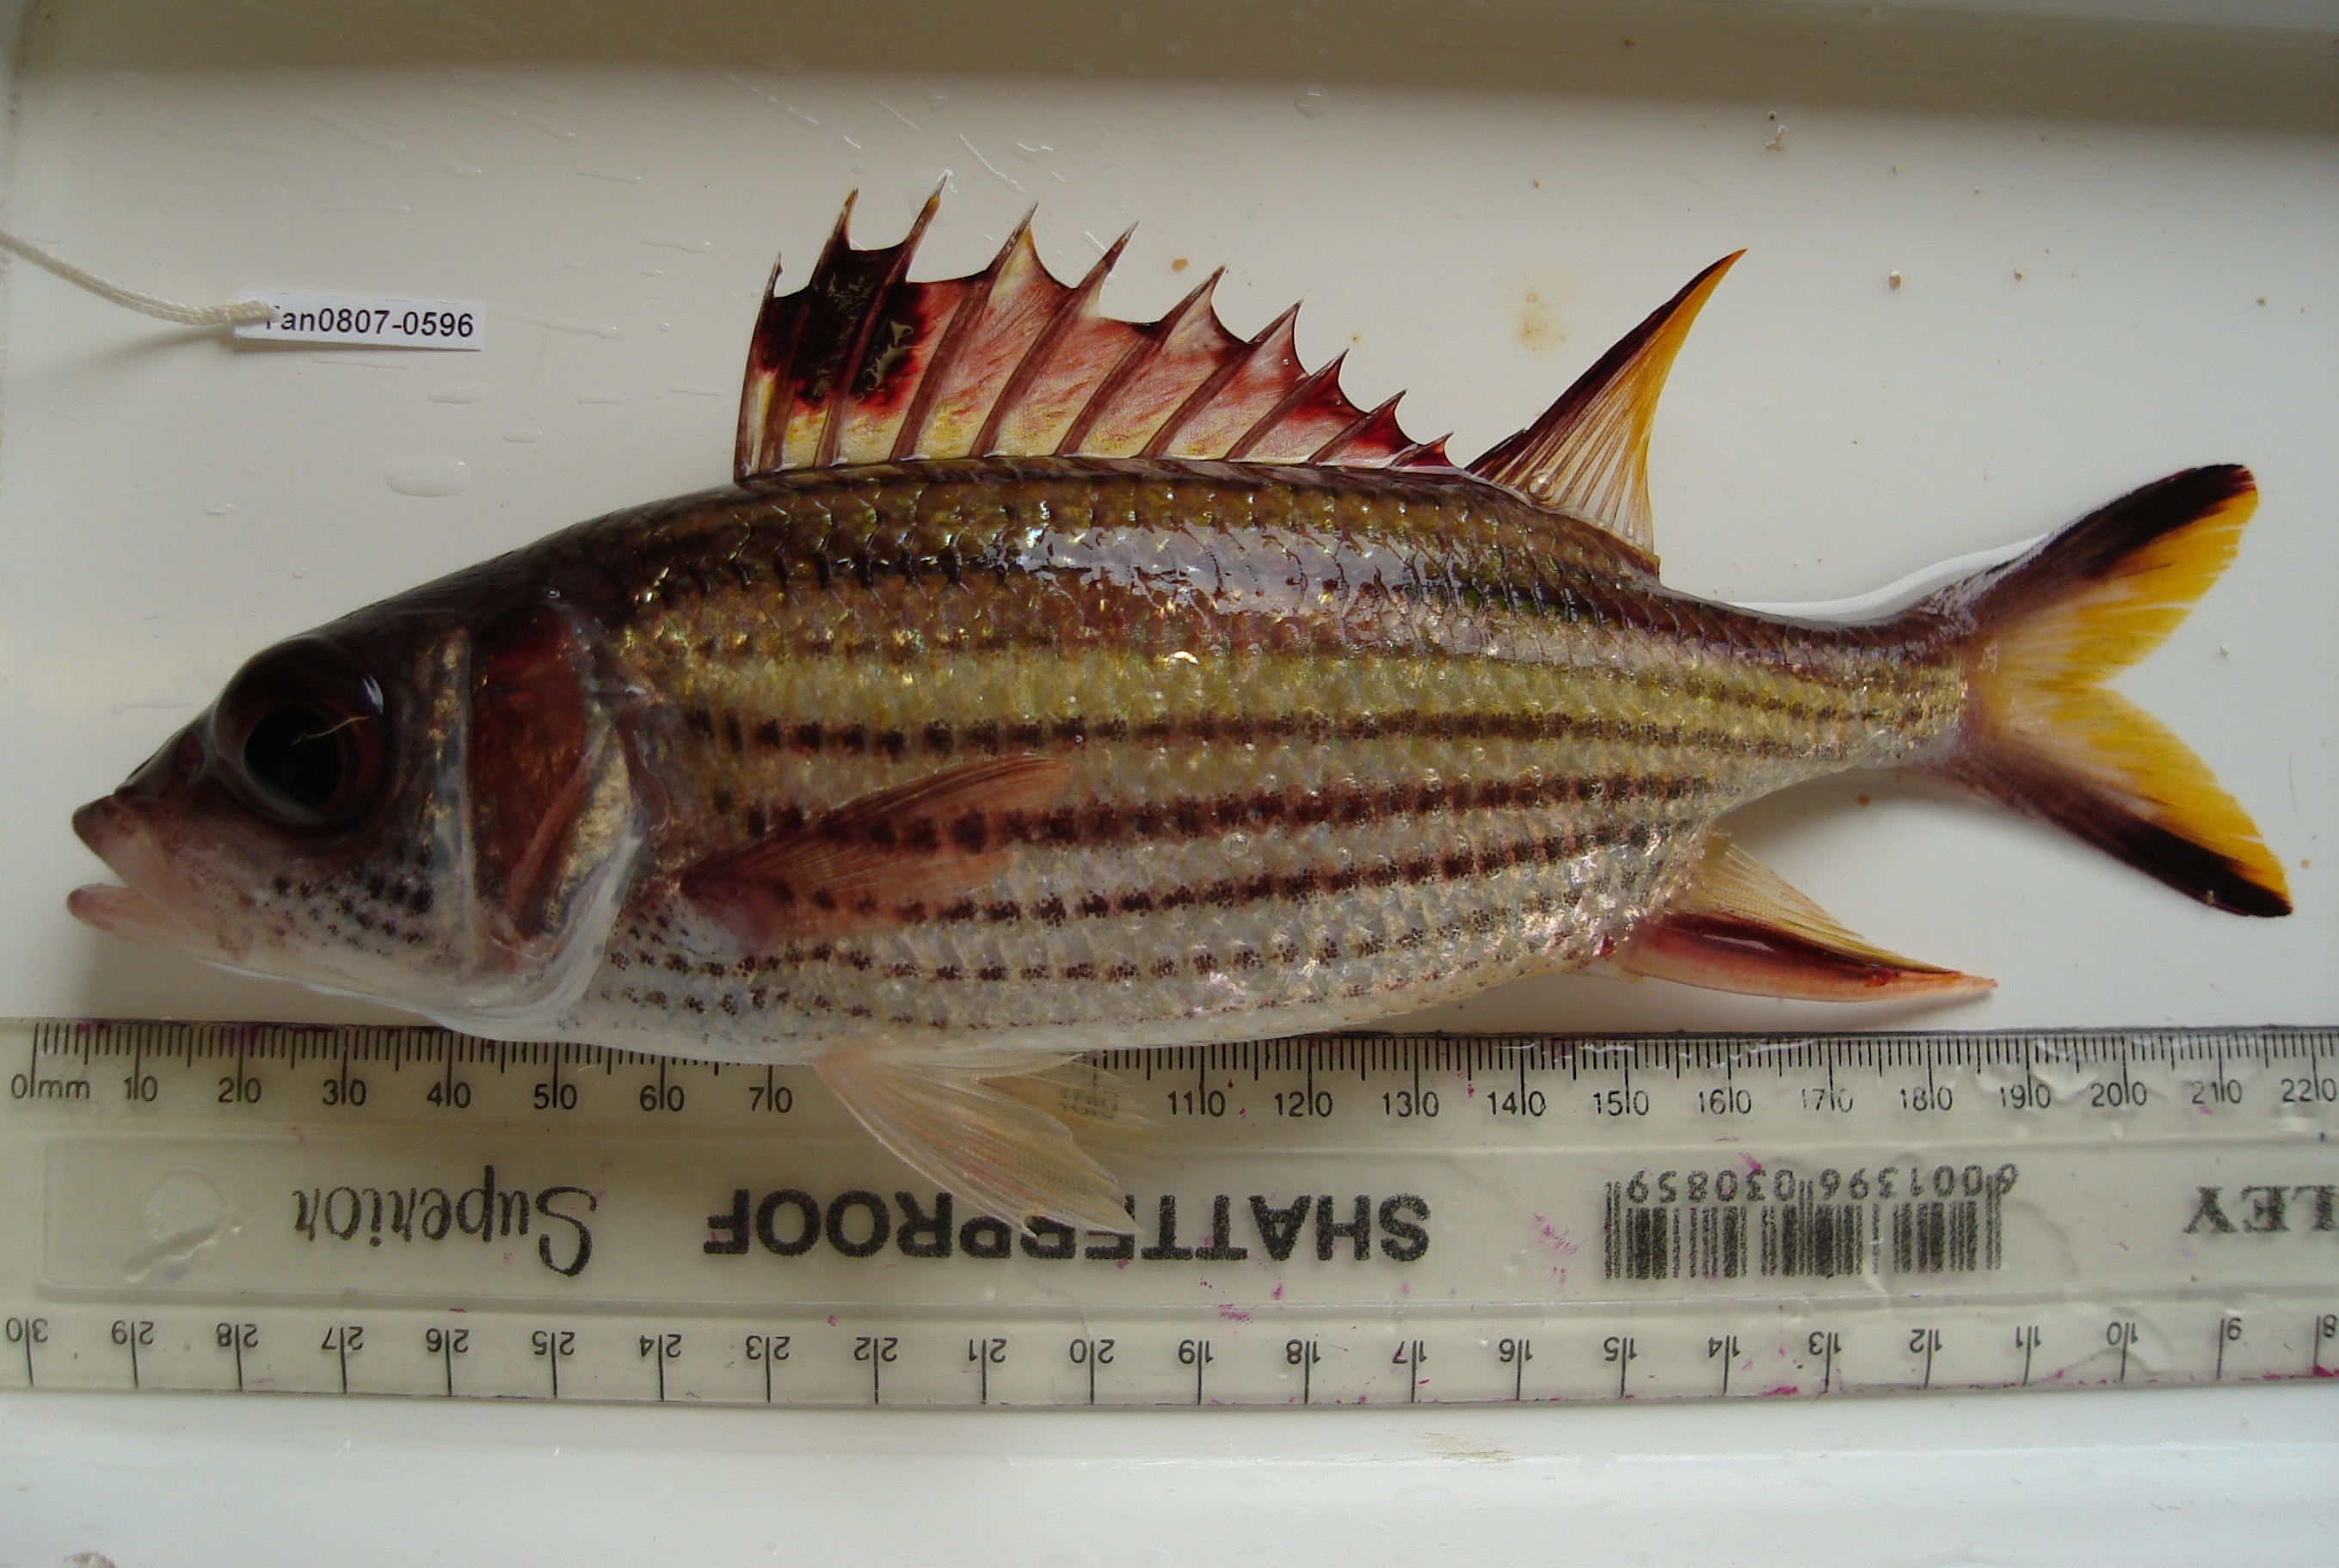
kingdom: Animalia
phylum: Chordata
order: Beryciformes
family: Holocentridae
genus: Neoniphon
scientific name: Neoniphon sammara
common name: Sammara squirrelfish
